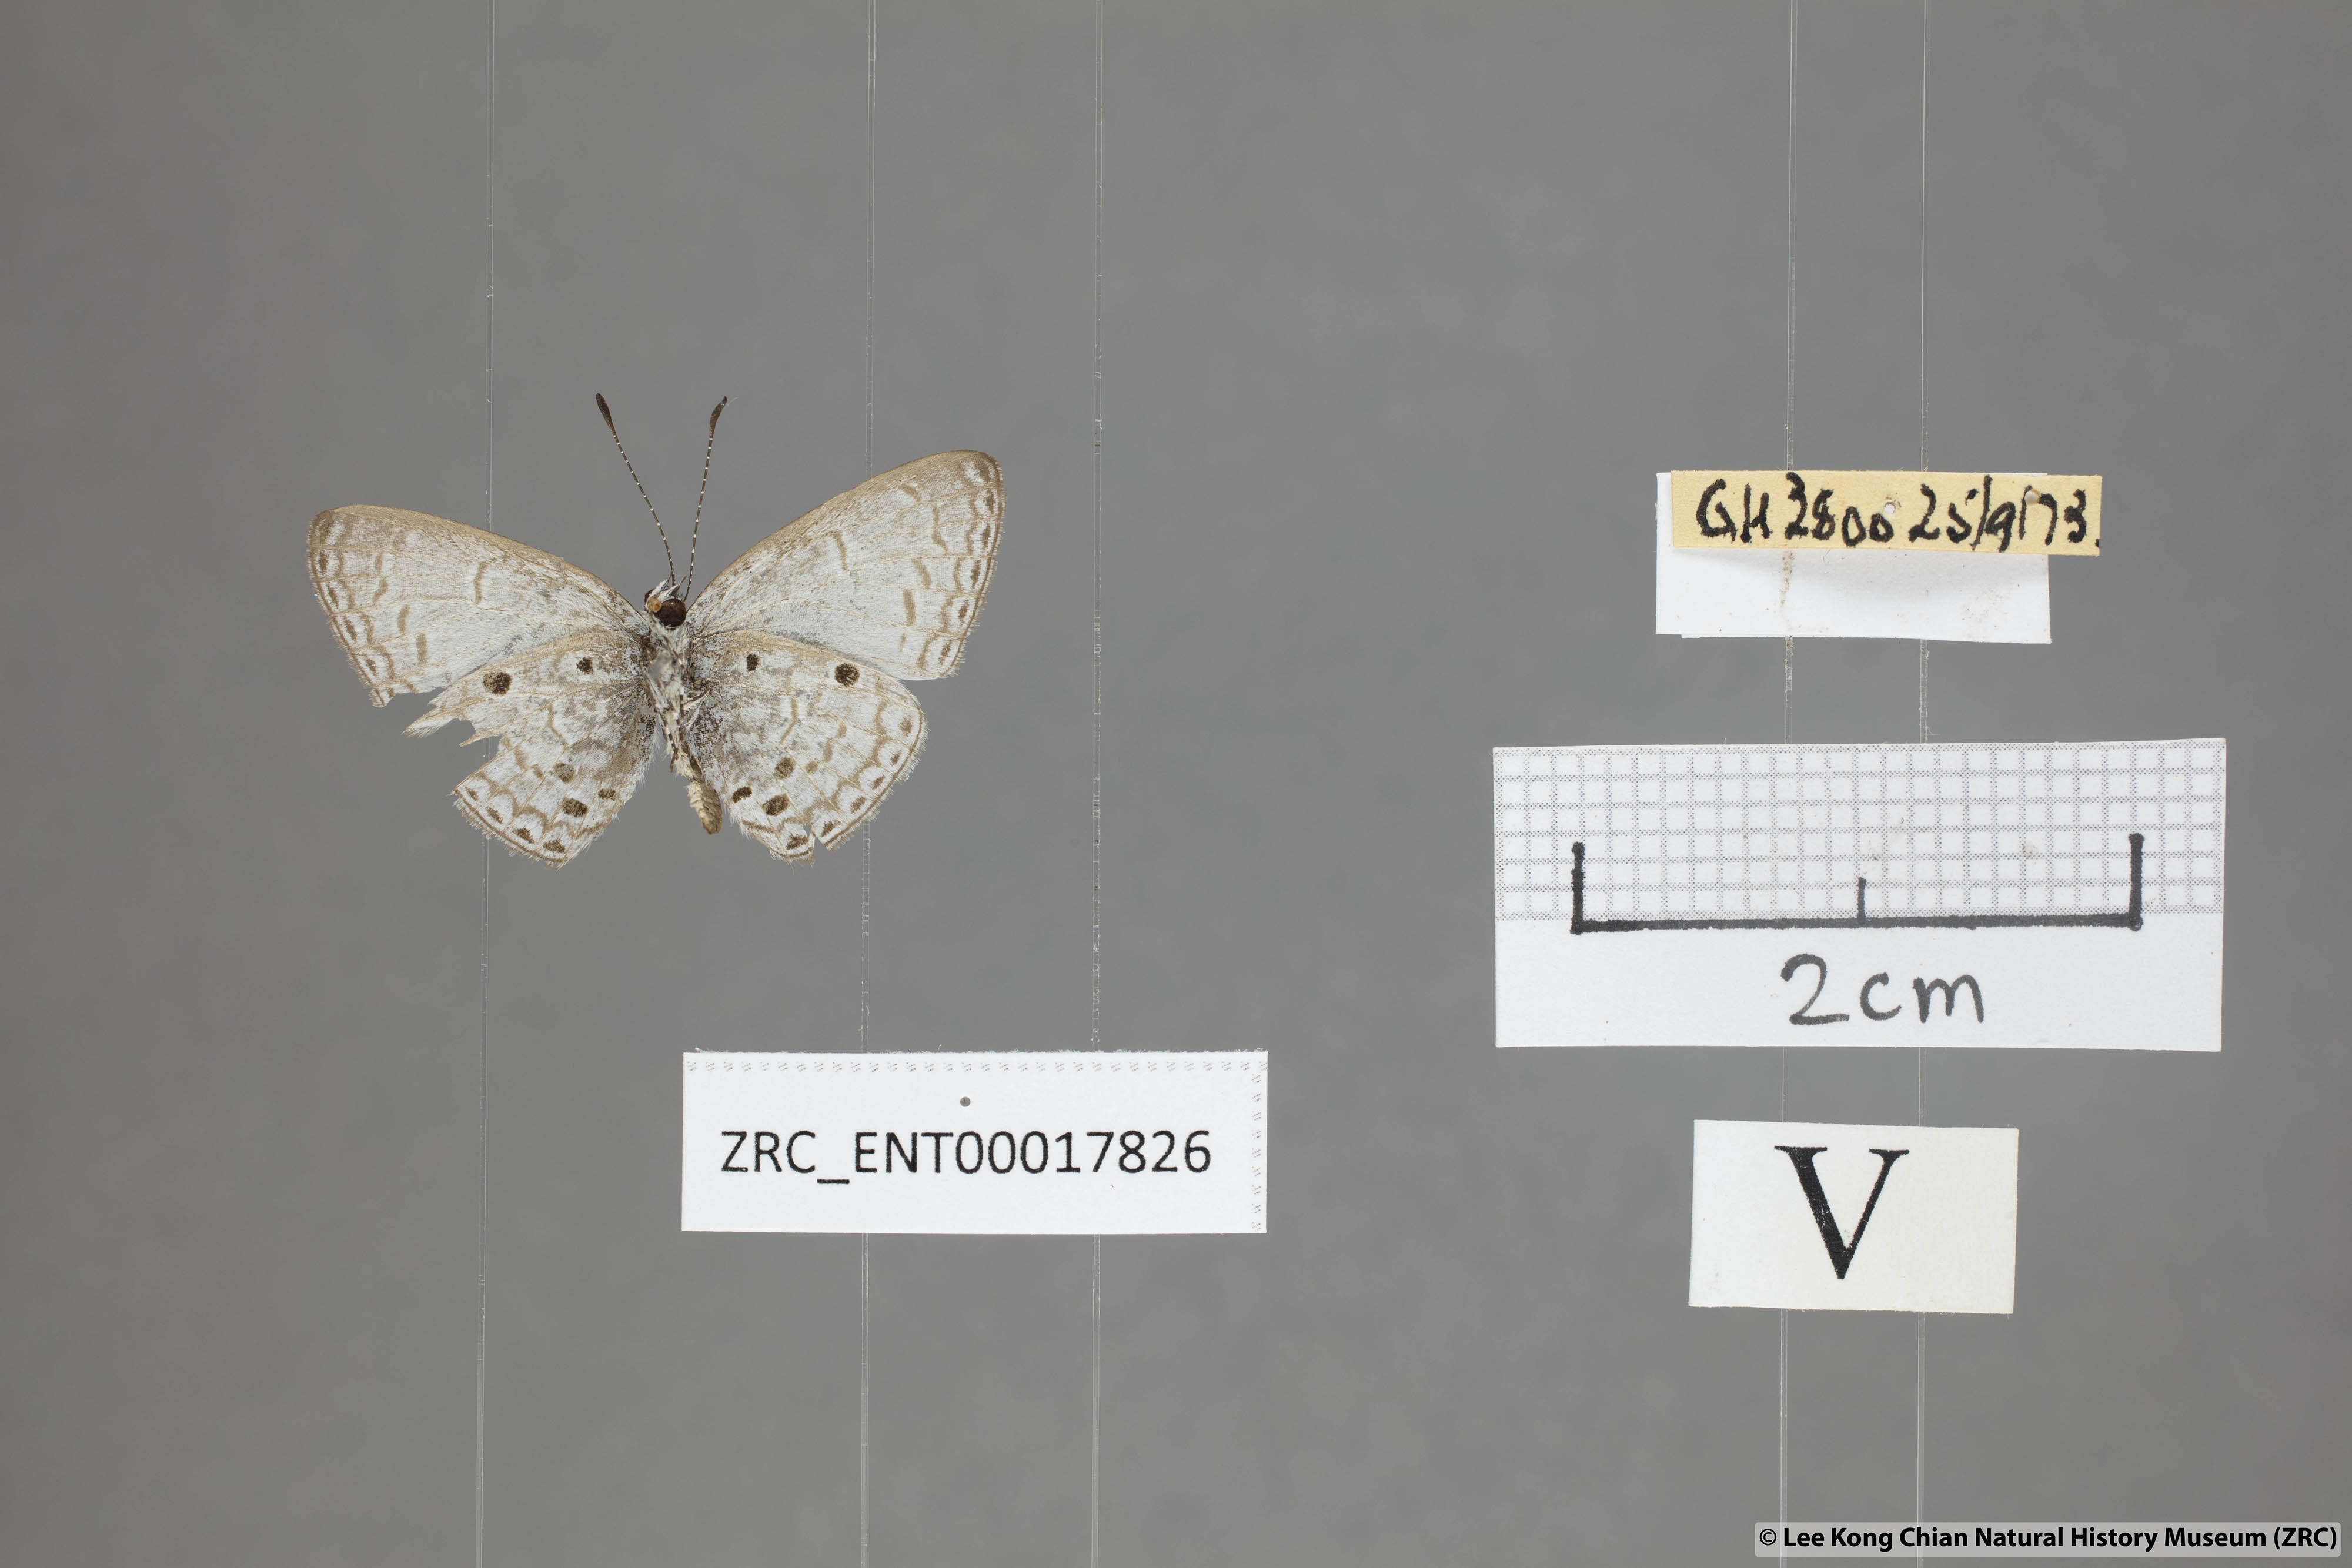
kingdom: Animalia
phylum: Arthropoda
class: Insecta
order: Lepidoptera
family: Lycaenidae
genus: Cebrella
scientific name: Cebrella
